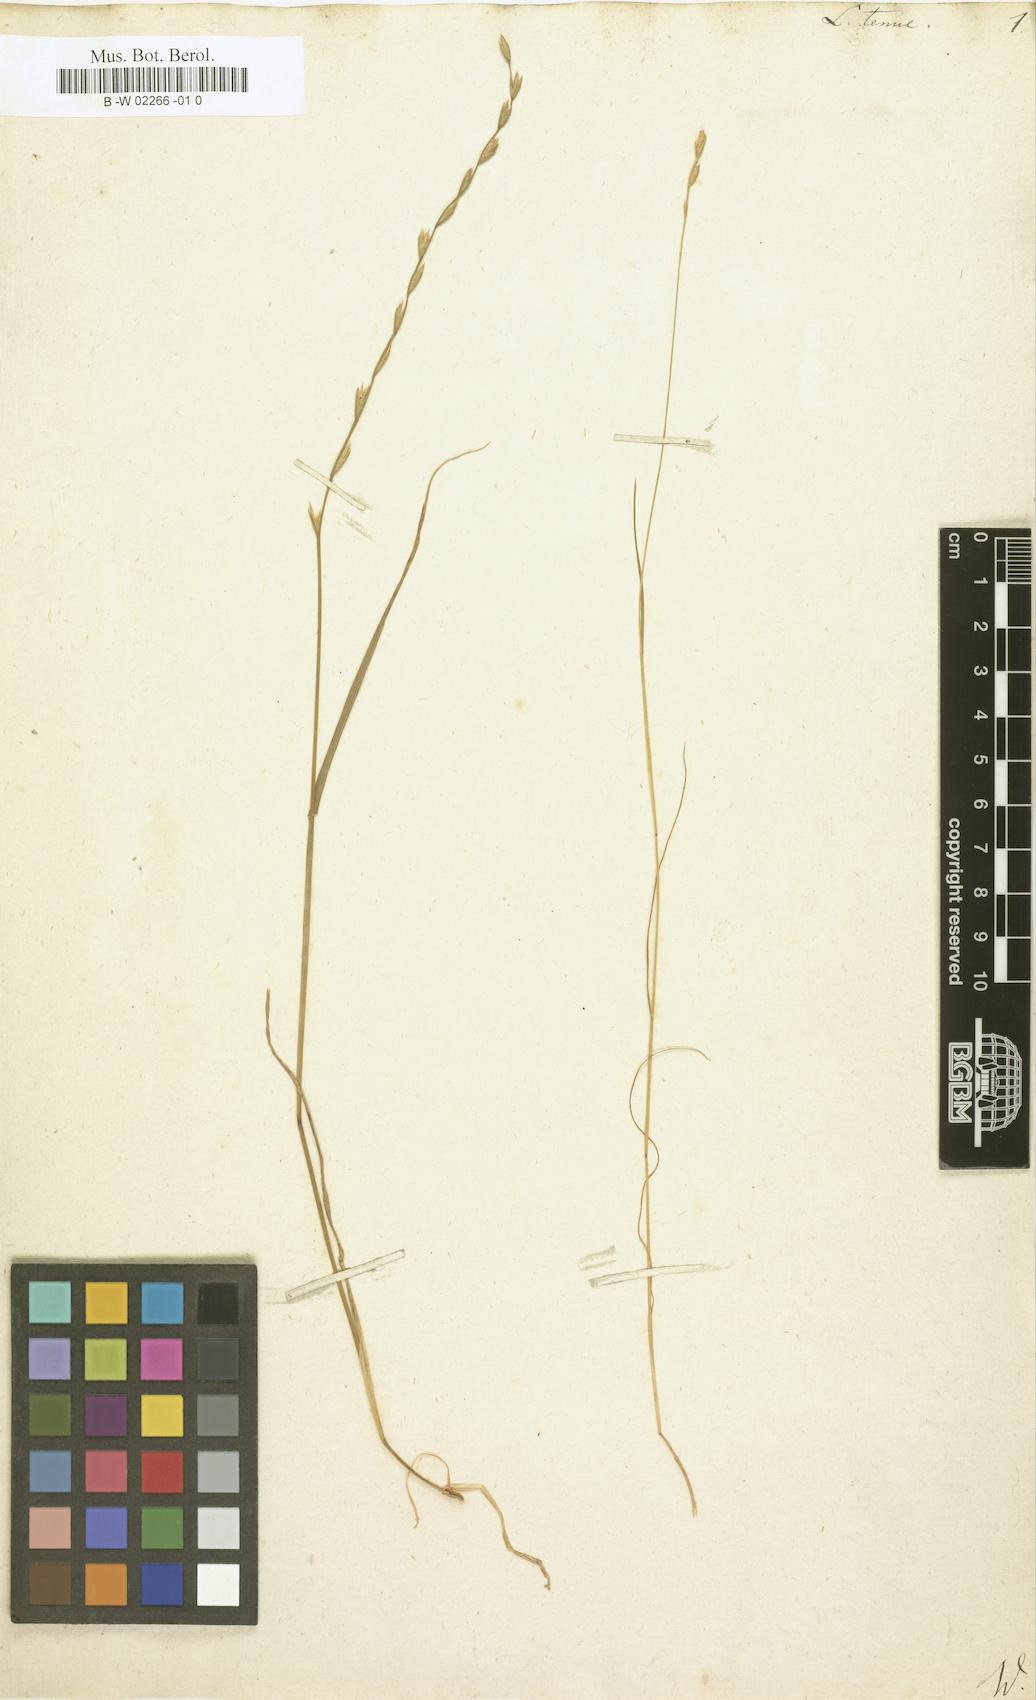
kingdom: Plantae
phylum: Tracheophyta
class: Liliopsida
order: Poales
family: Poaceae
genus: Lolium
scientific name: Lolium tenue
